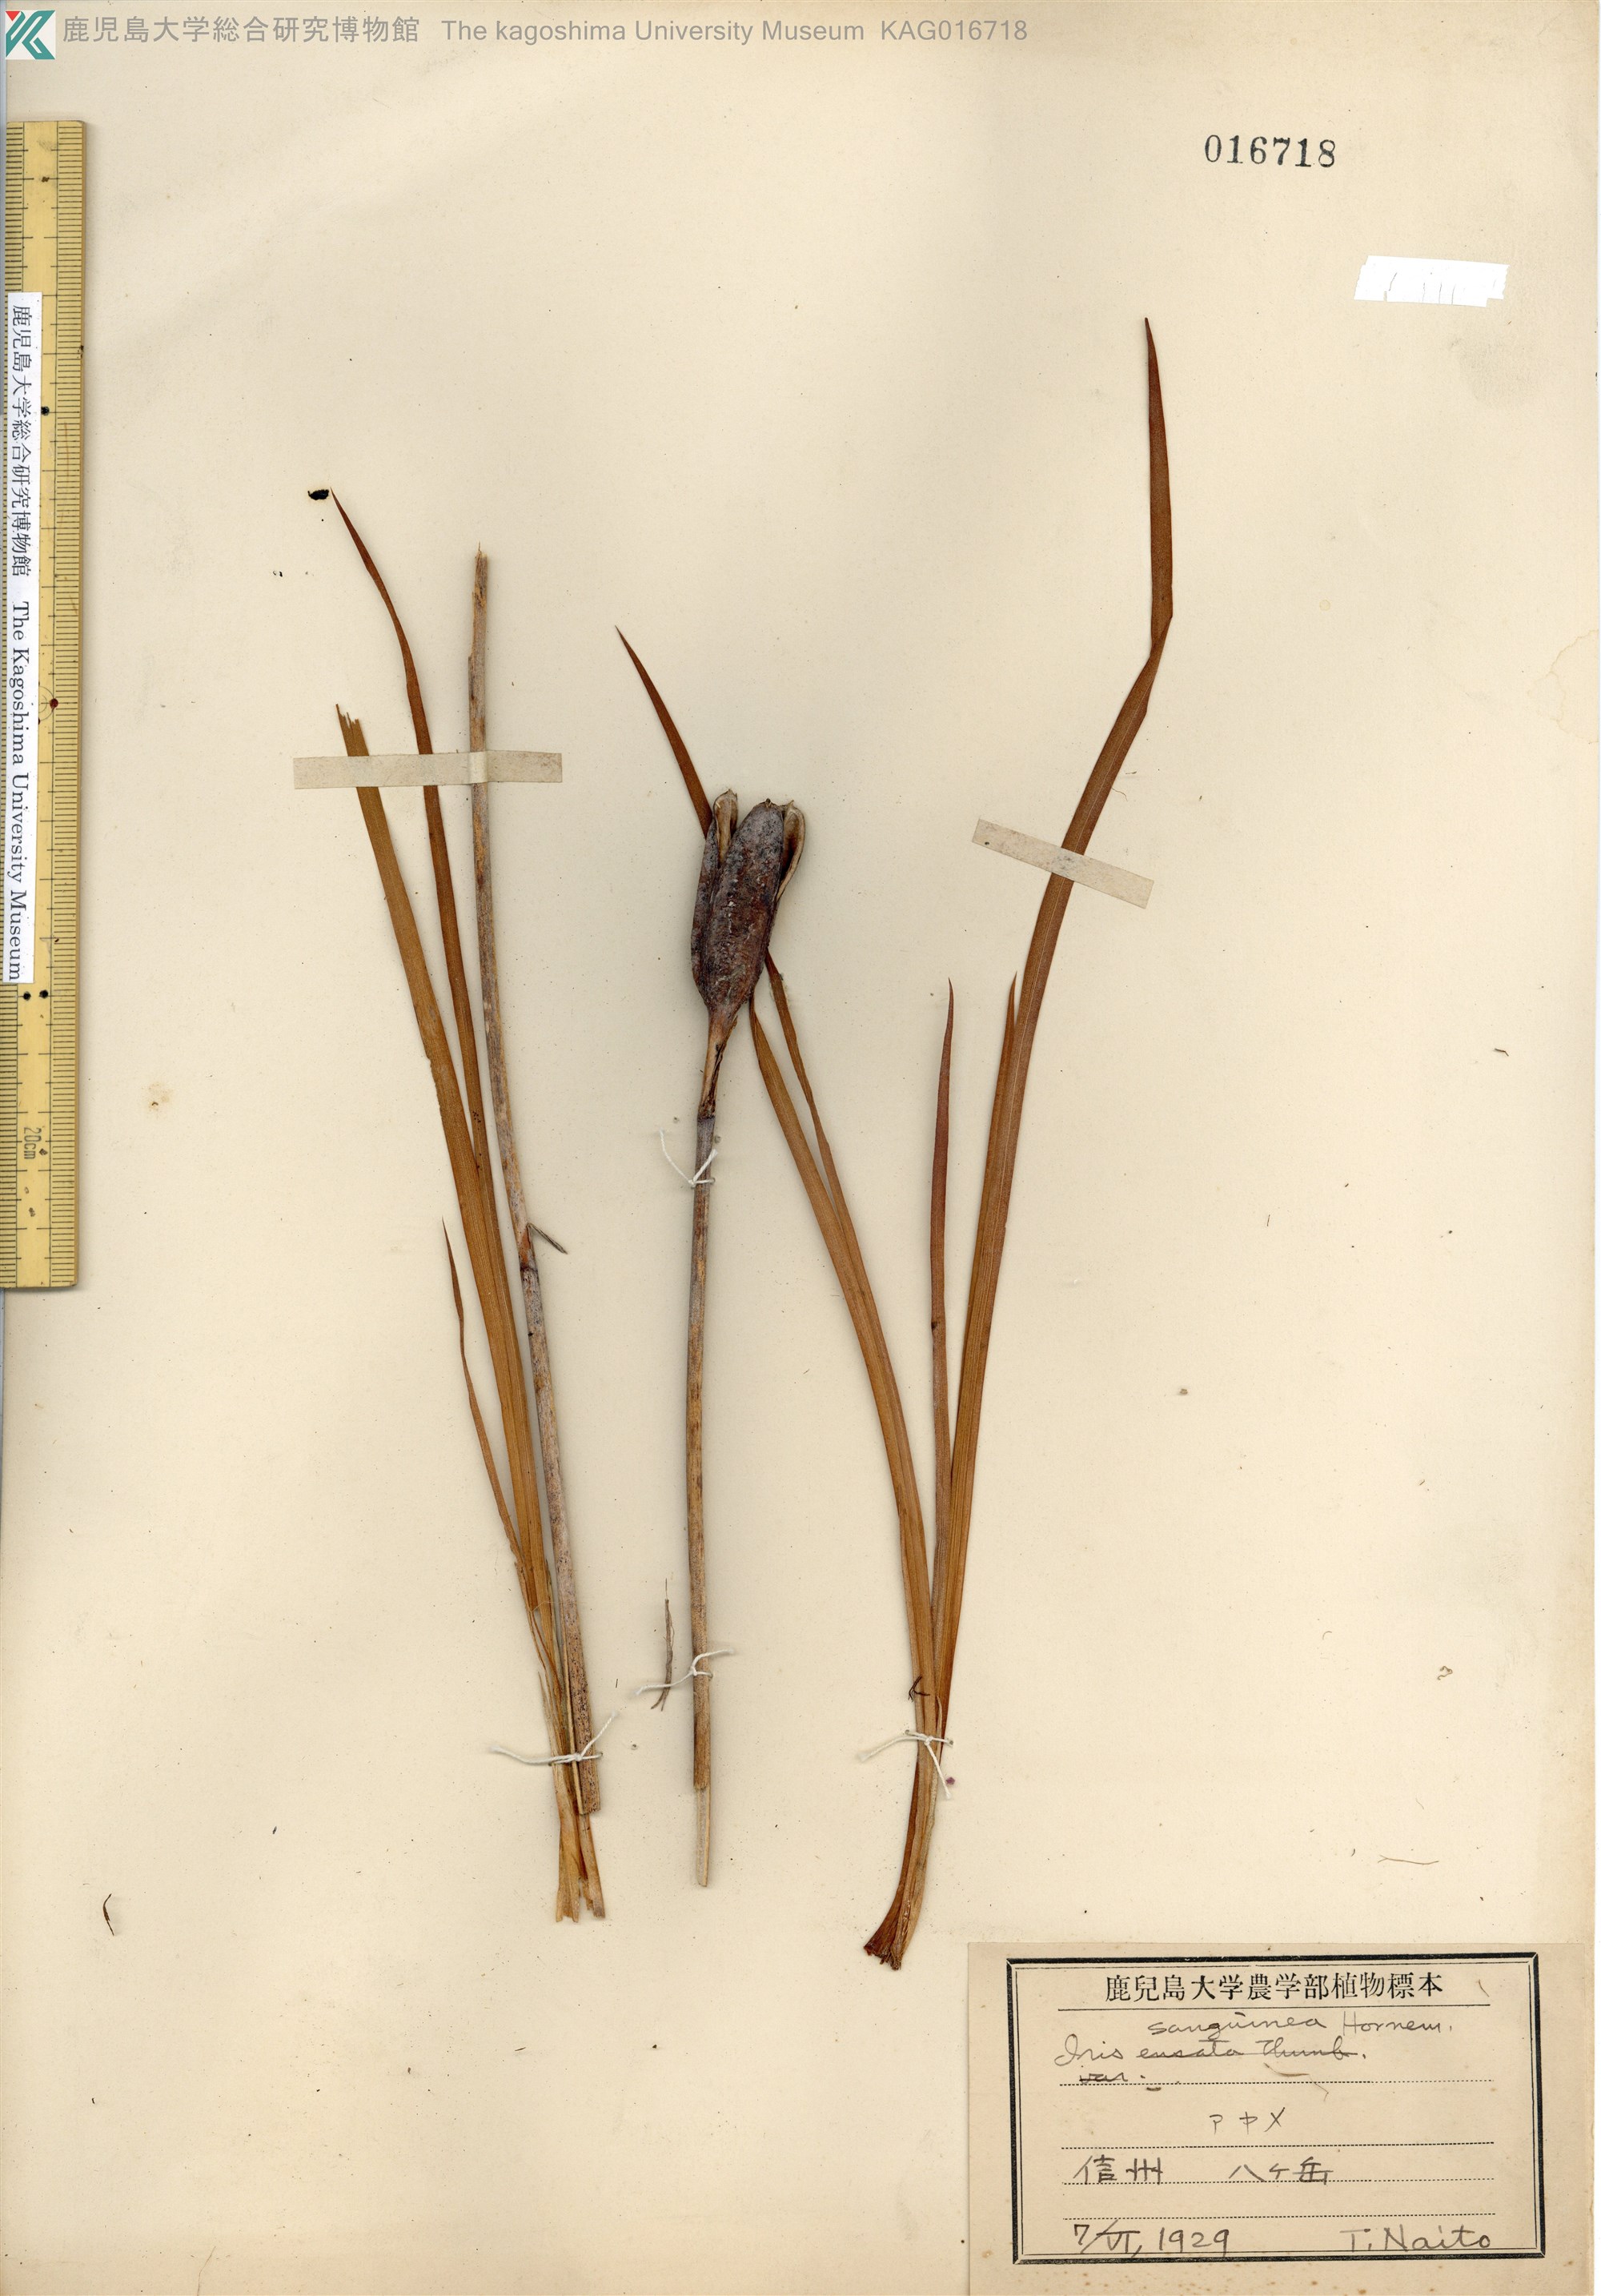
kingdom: Plantae
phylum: Tracheophyta
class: Liliopsida
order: Asparagales
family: Iridaceae
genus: Iris
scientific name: Iris ensata
